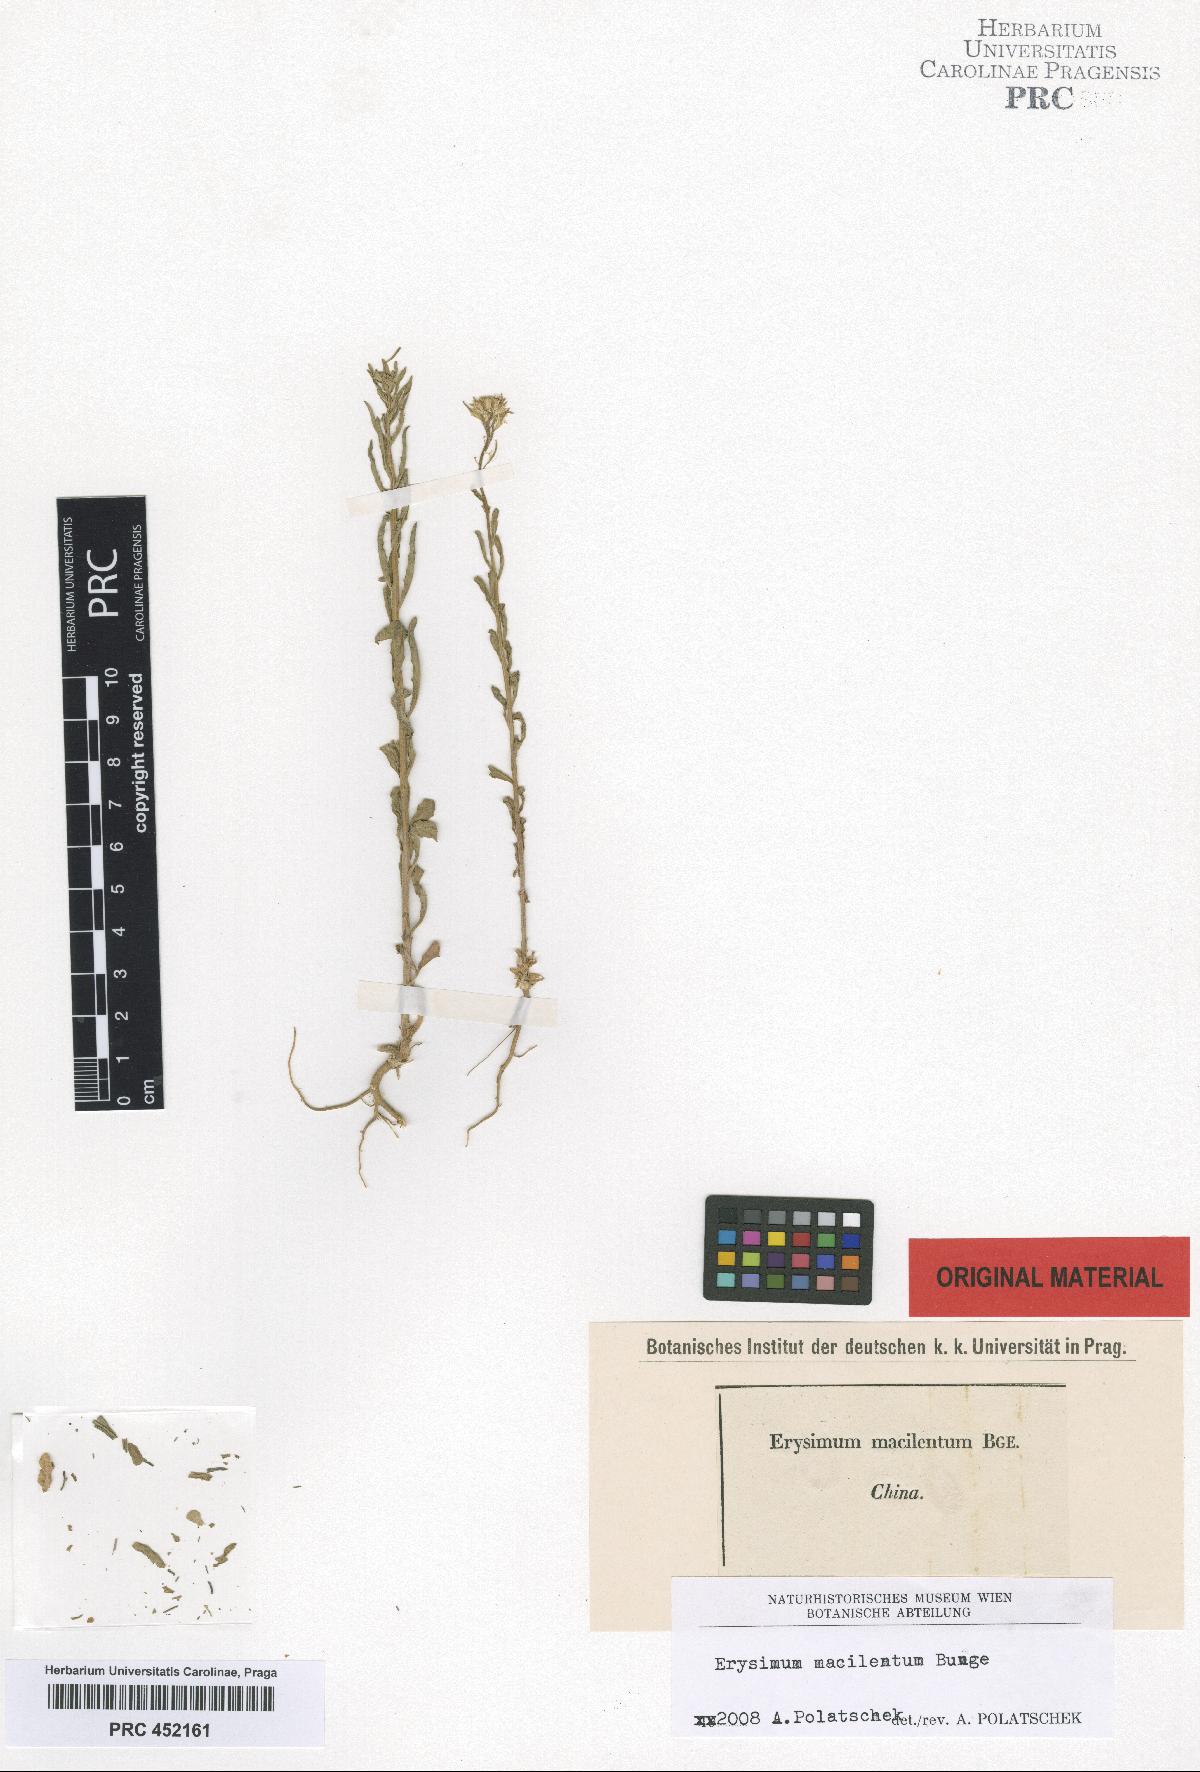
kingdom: Plantae
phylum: Tracheophyta
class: Magnoliopsida
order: Brassicales
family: Brassicaceae
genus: Erysimum
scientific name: Erysimum macilentum
